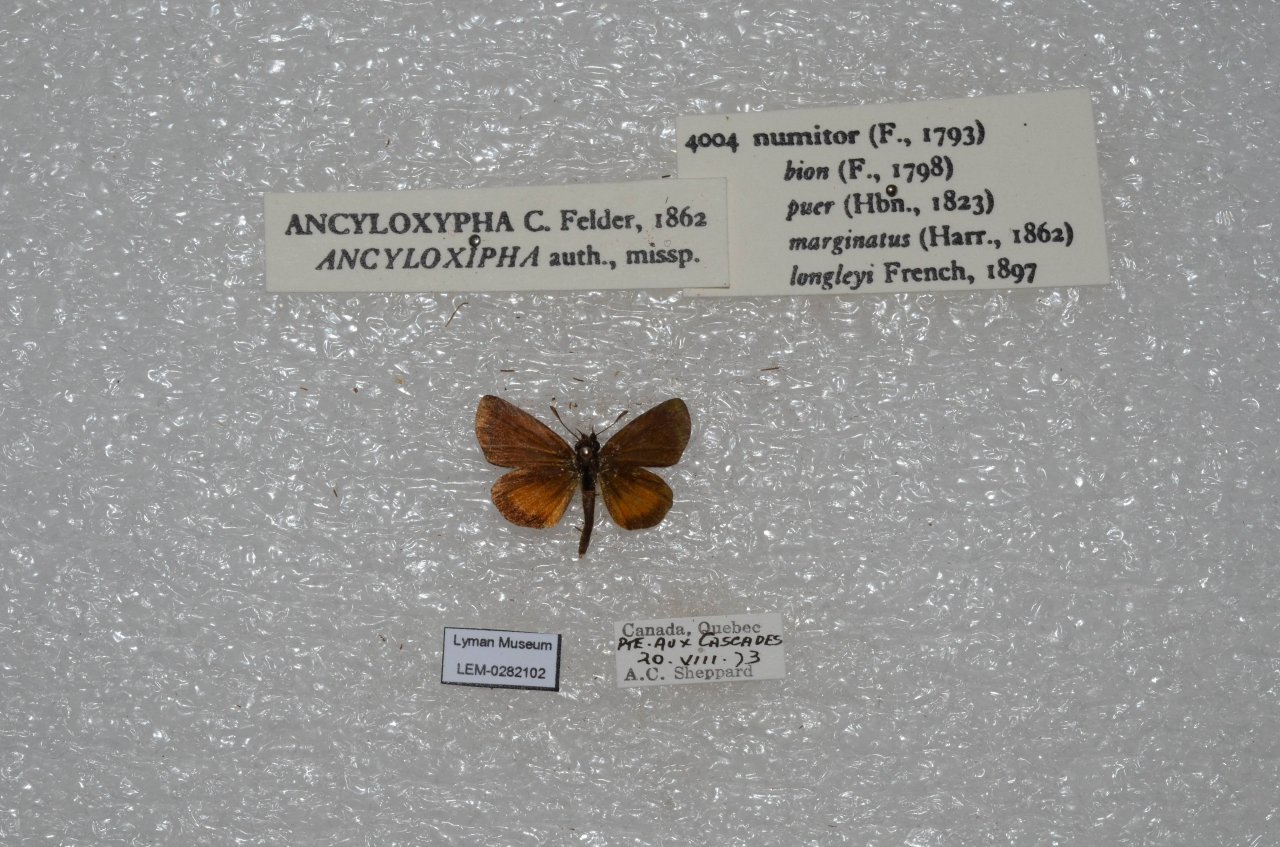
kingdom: Animalia
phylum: Arthropoda
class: Insecta
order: Lepidoptera
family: Hesperiidae
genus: Ancyloxypha
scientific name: Ancyloxypha numitor
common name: Least Skipper
